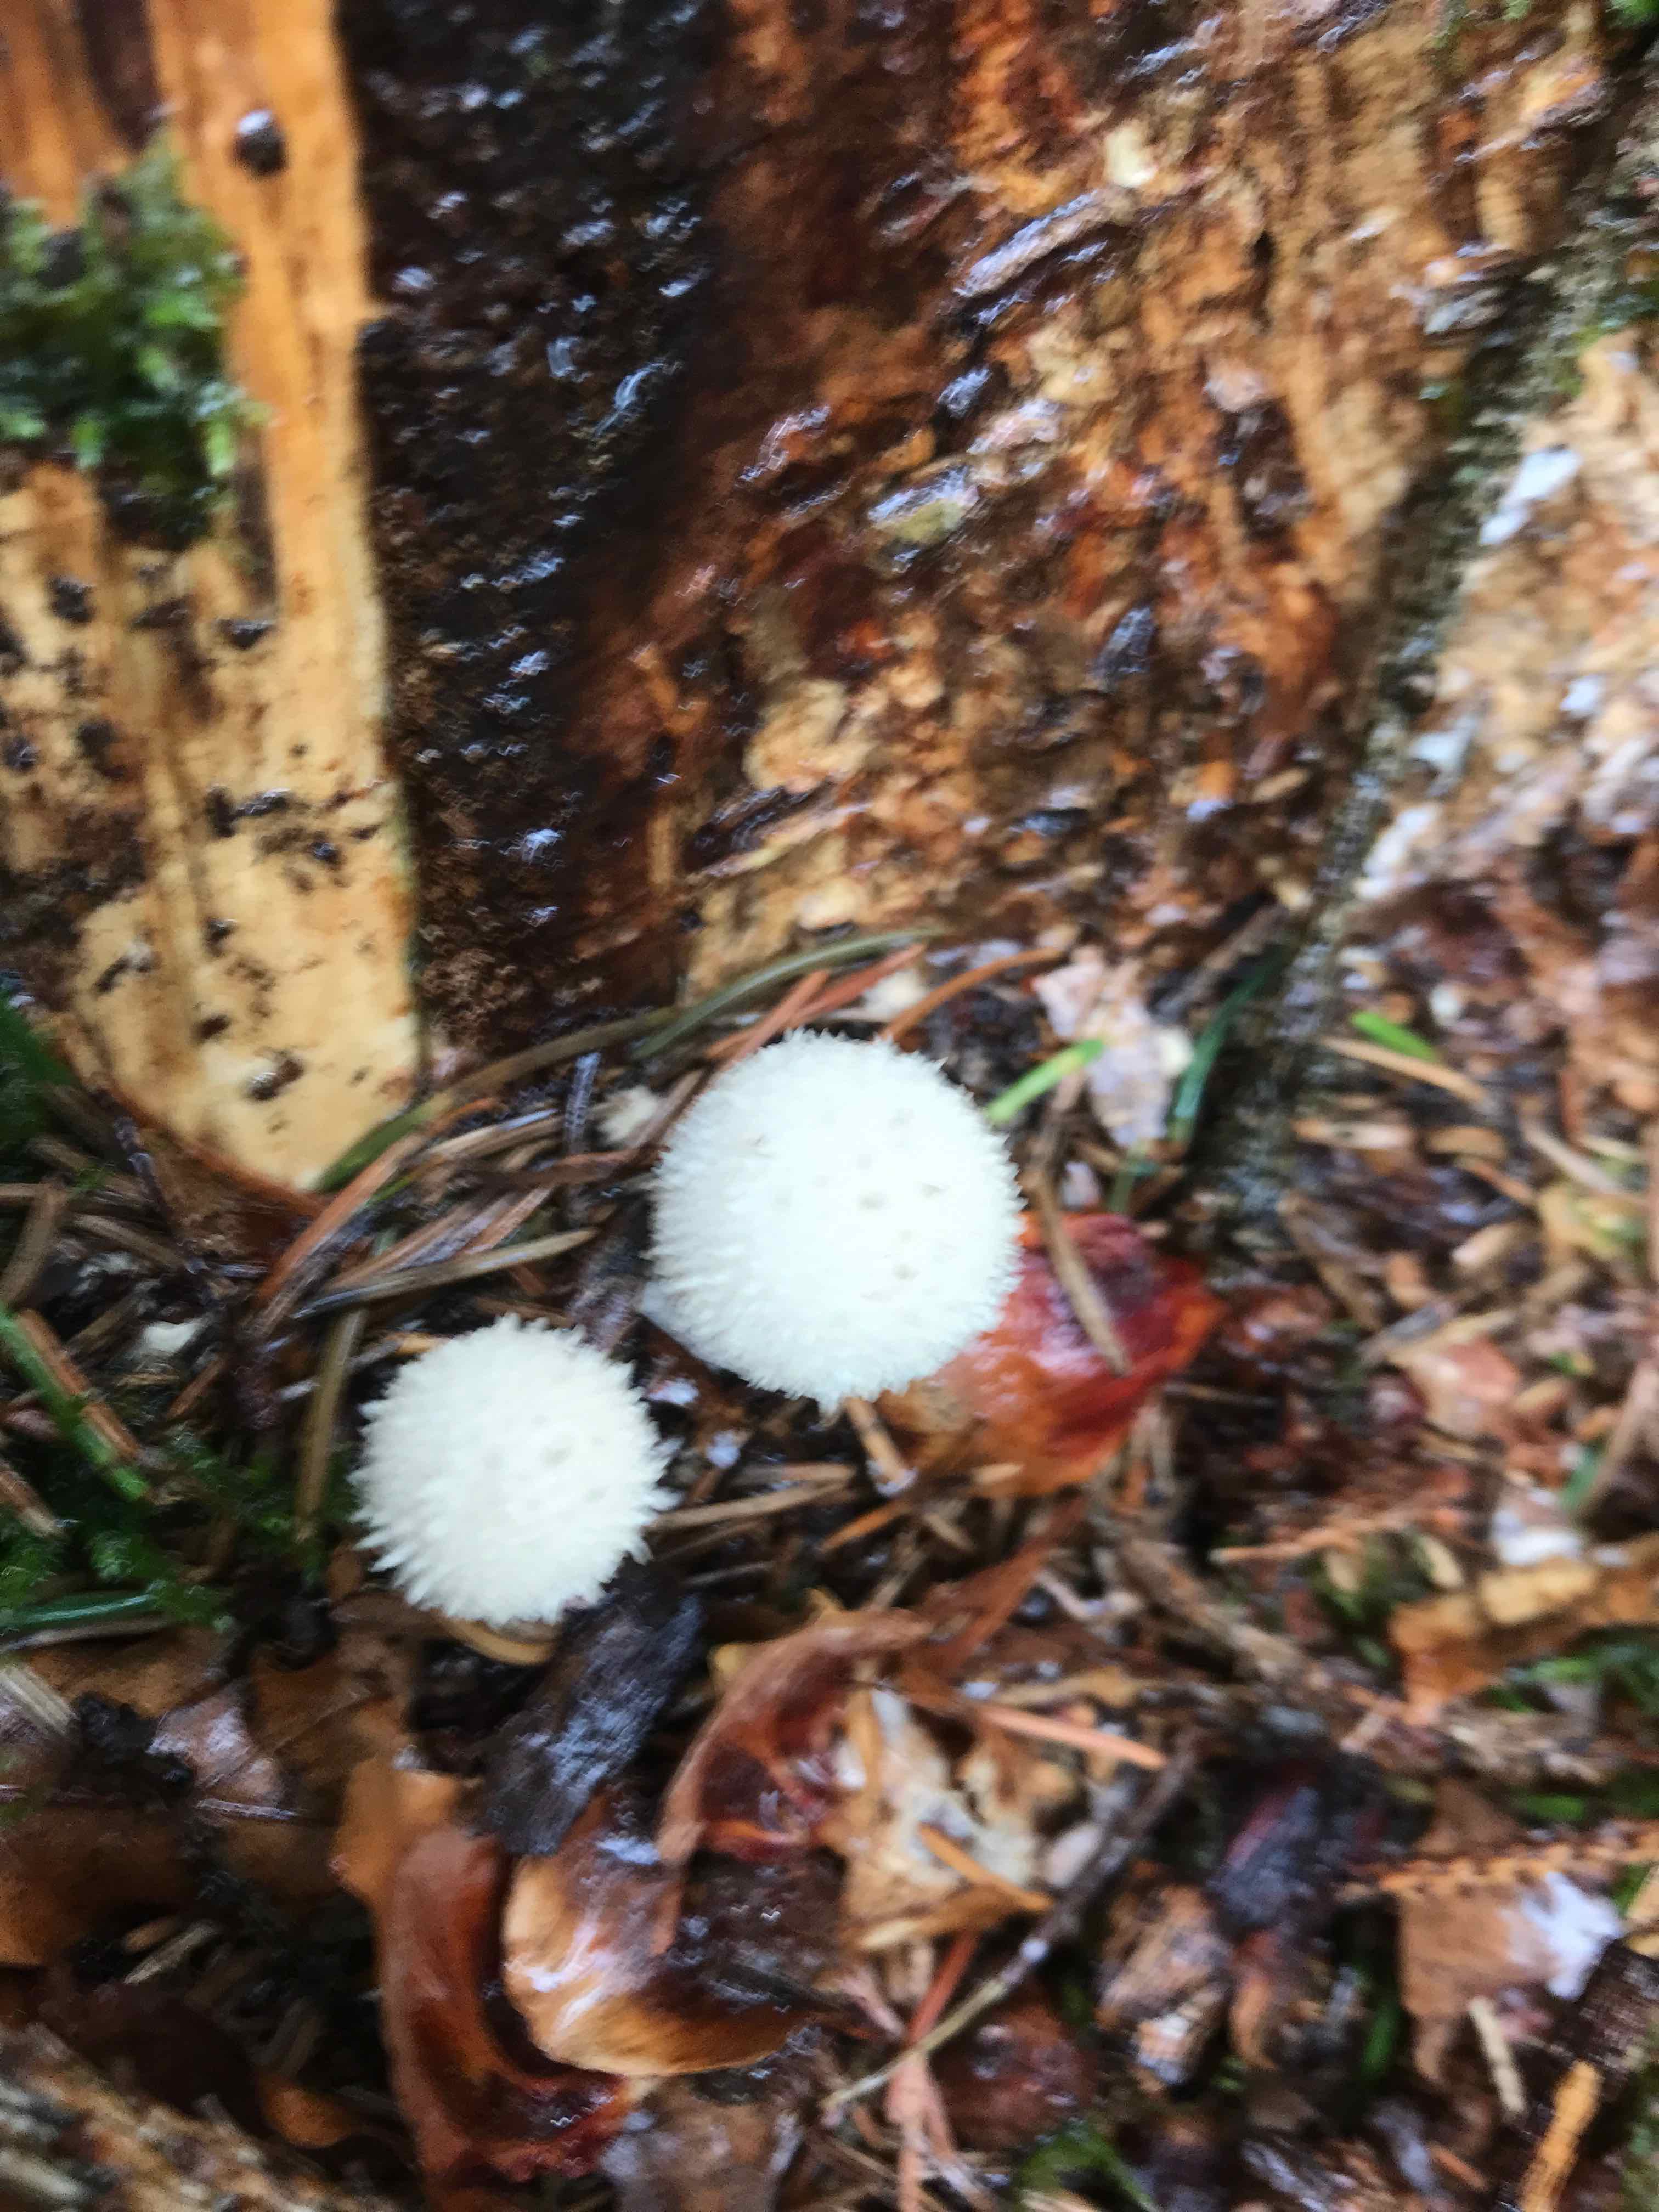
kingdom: Fungi
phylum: Basidiomycota
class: Agaricomycetes
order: Agaricales
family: Lycoperdaceae
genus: Lycoperdon
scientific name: Lycoperdon perlatum
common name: krystal-støvbold
